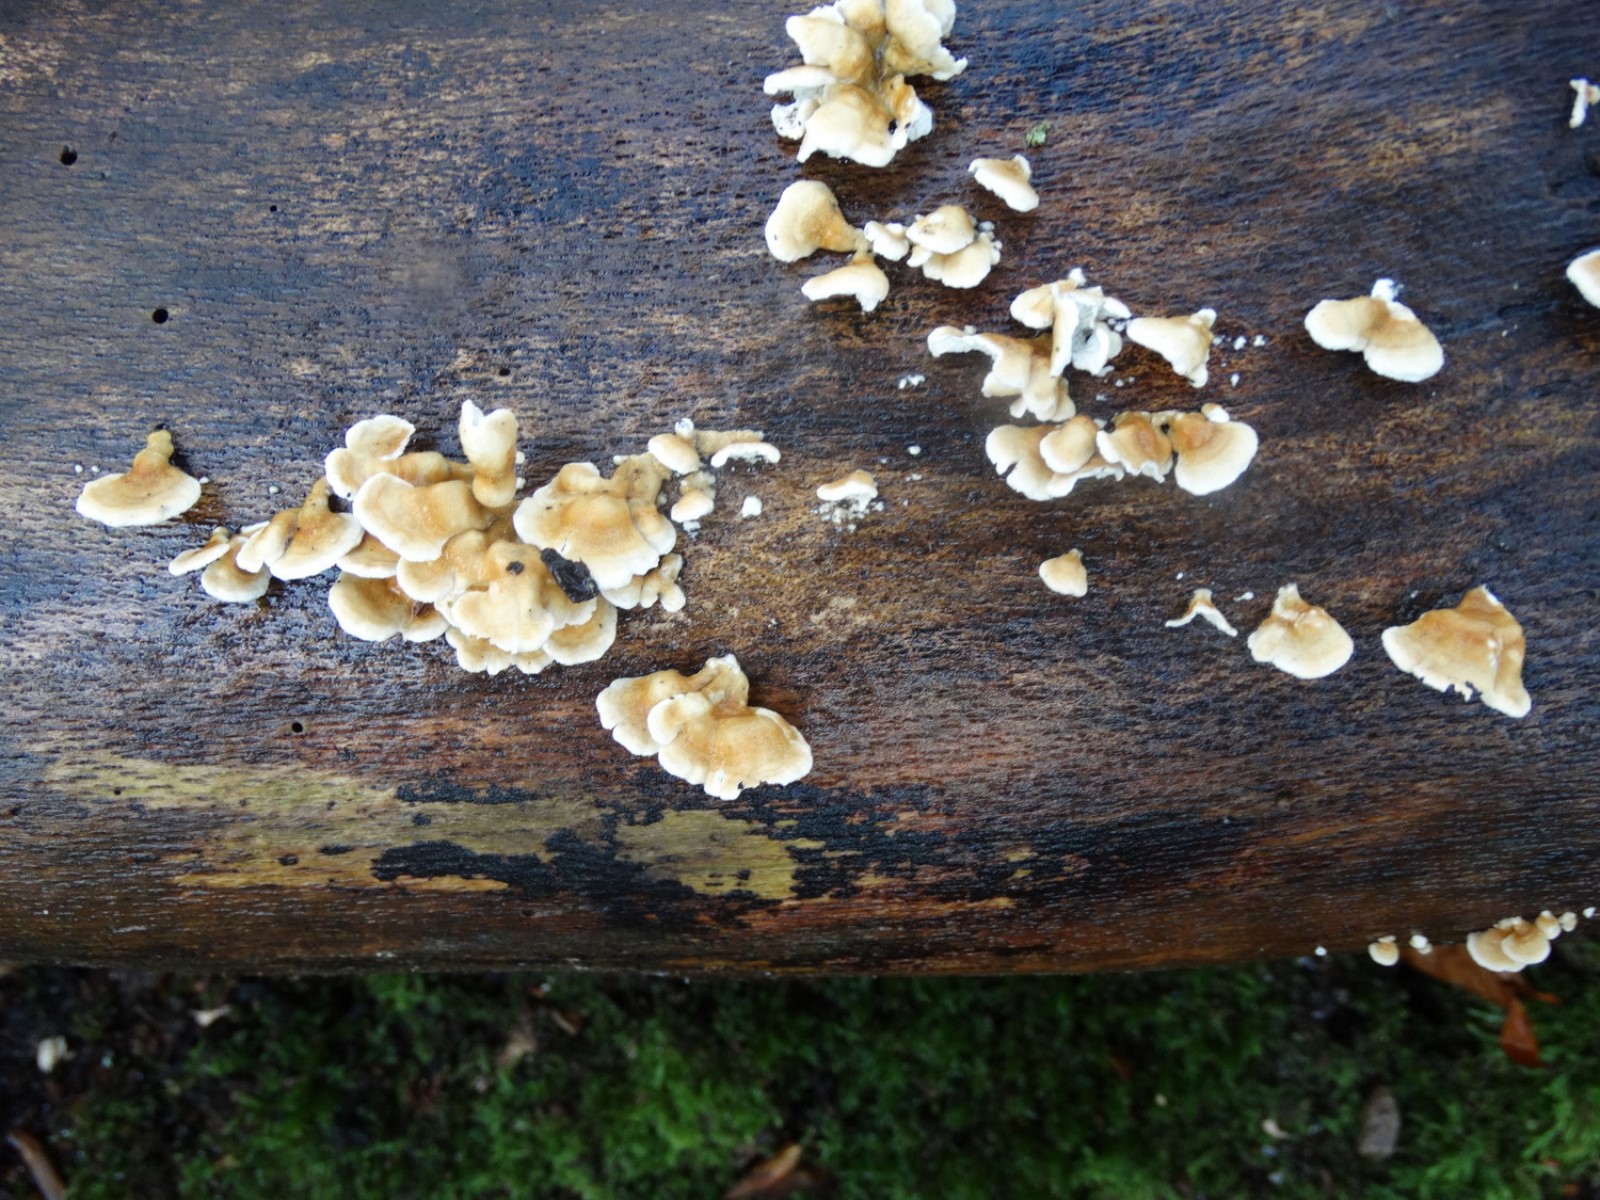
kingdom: Fungi
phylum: Basidiomycota
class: Agaricomycetes
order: Amylocorticiales
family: Amylocorticiaceae
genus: Plicaturopsis
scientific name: Plicaturopsis crispa
